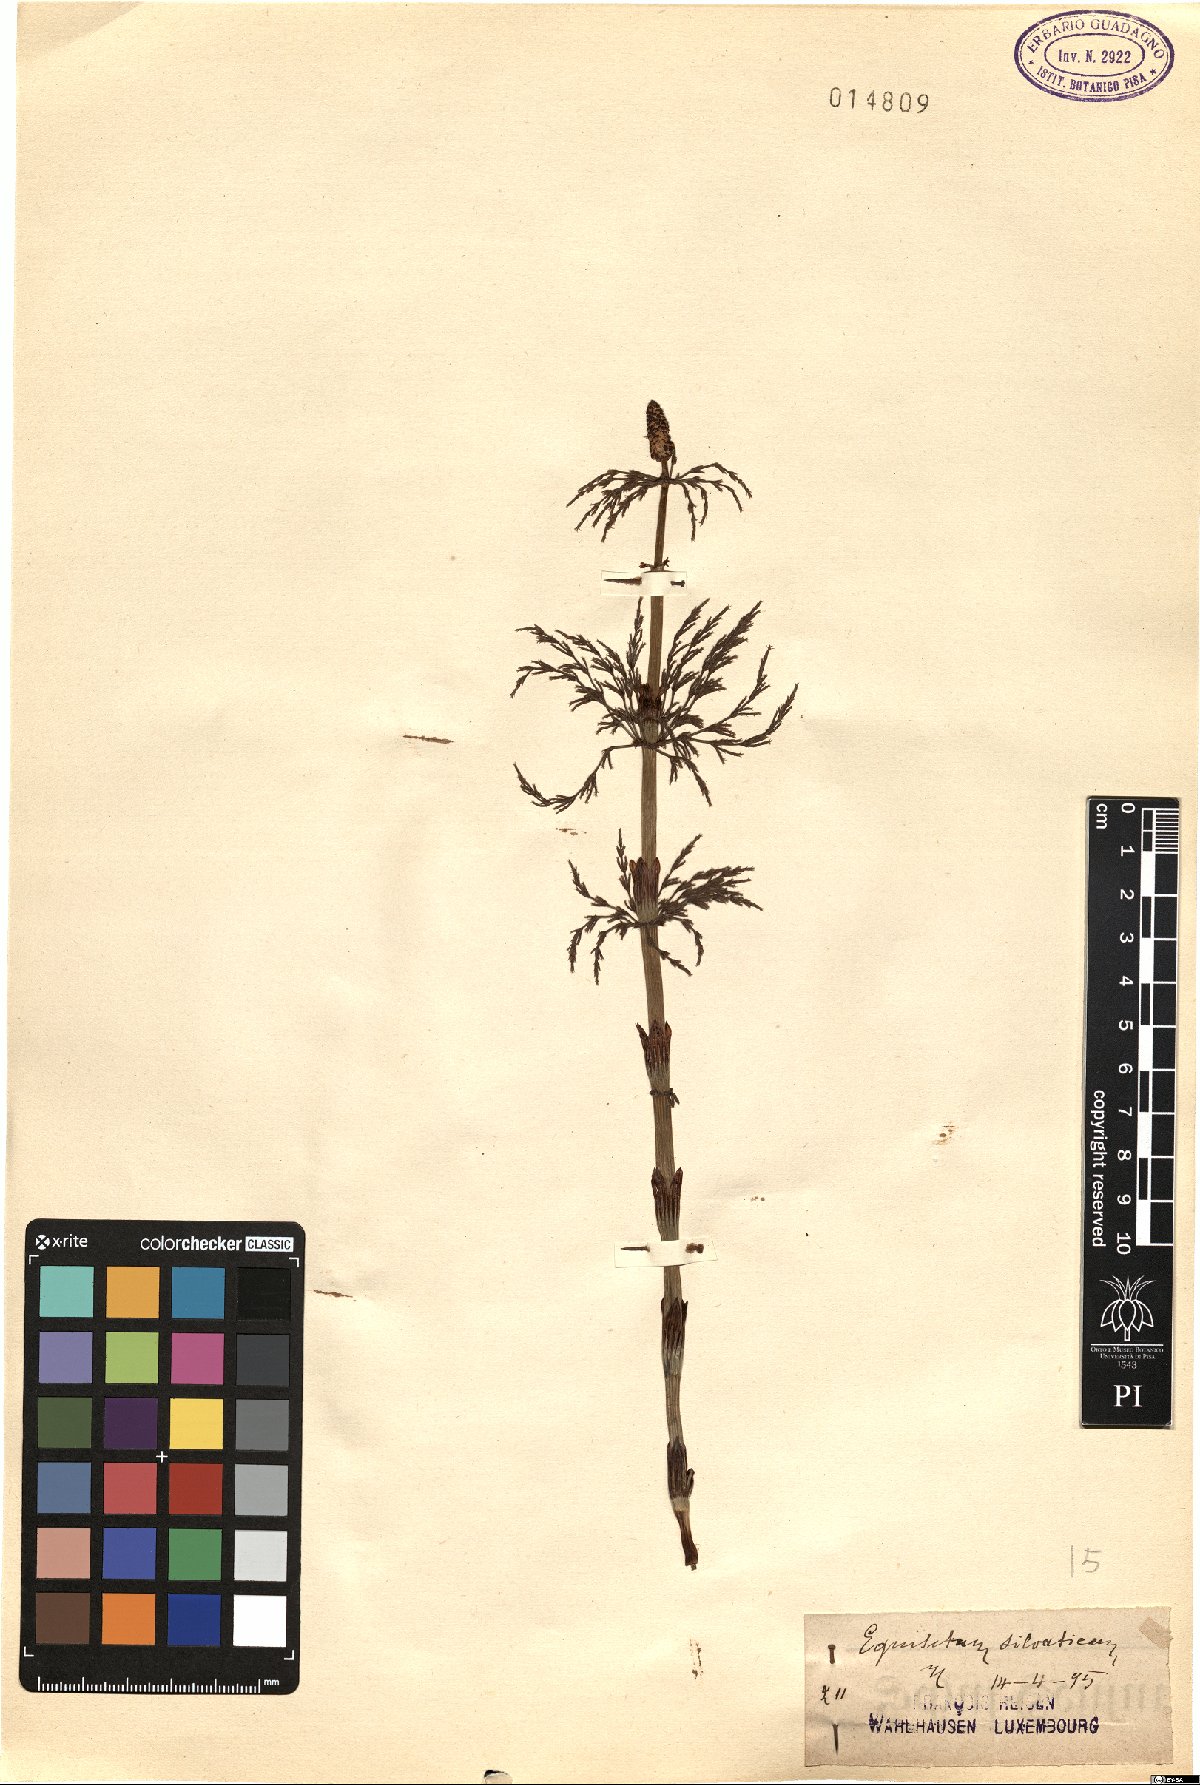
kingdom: Plantae
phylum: Tracheophyta
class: Polypodiopsida
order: Equisetales
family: Equisetaceae
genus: Equisetum
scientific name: Equisetum sylvaticum
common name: Wood horsetail
